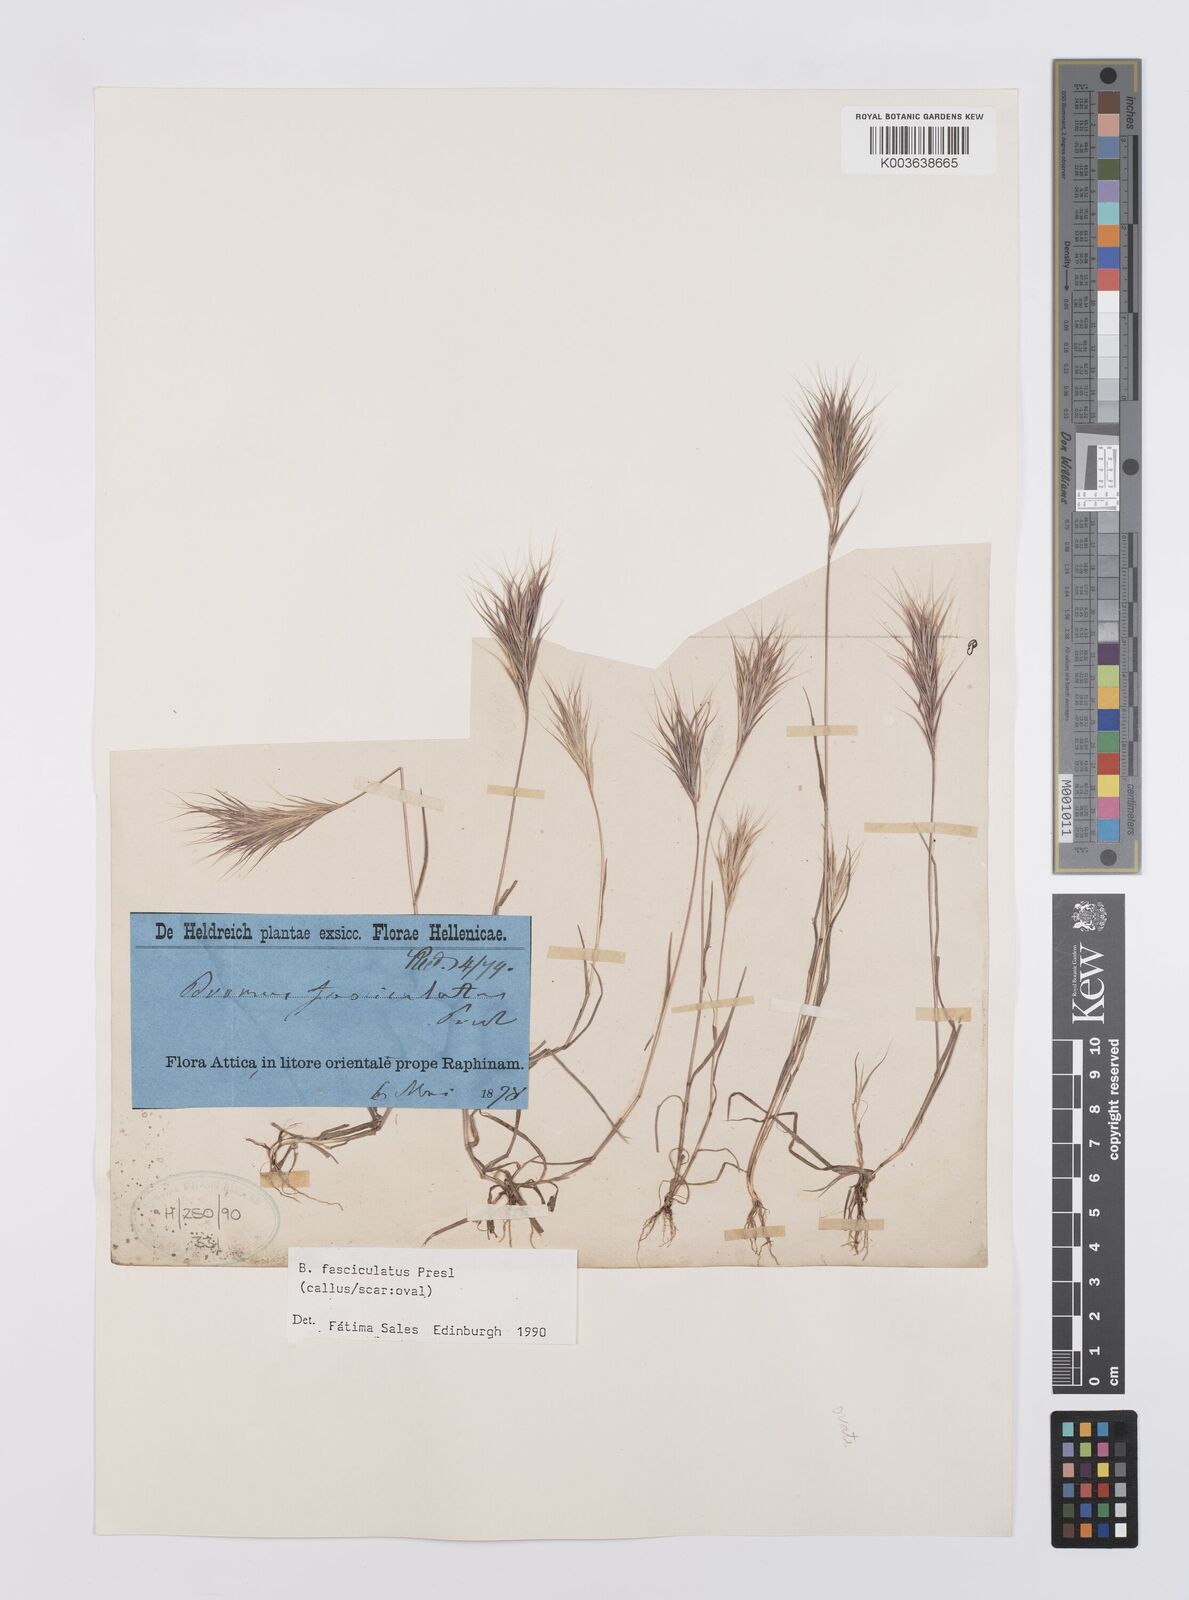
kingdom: Plantae
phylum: Tracheophyta
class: Liliopsida
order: Poales
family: Poaceae
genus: Bromus
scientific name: Bromus fasciculatus
